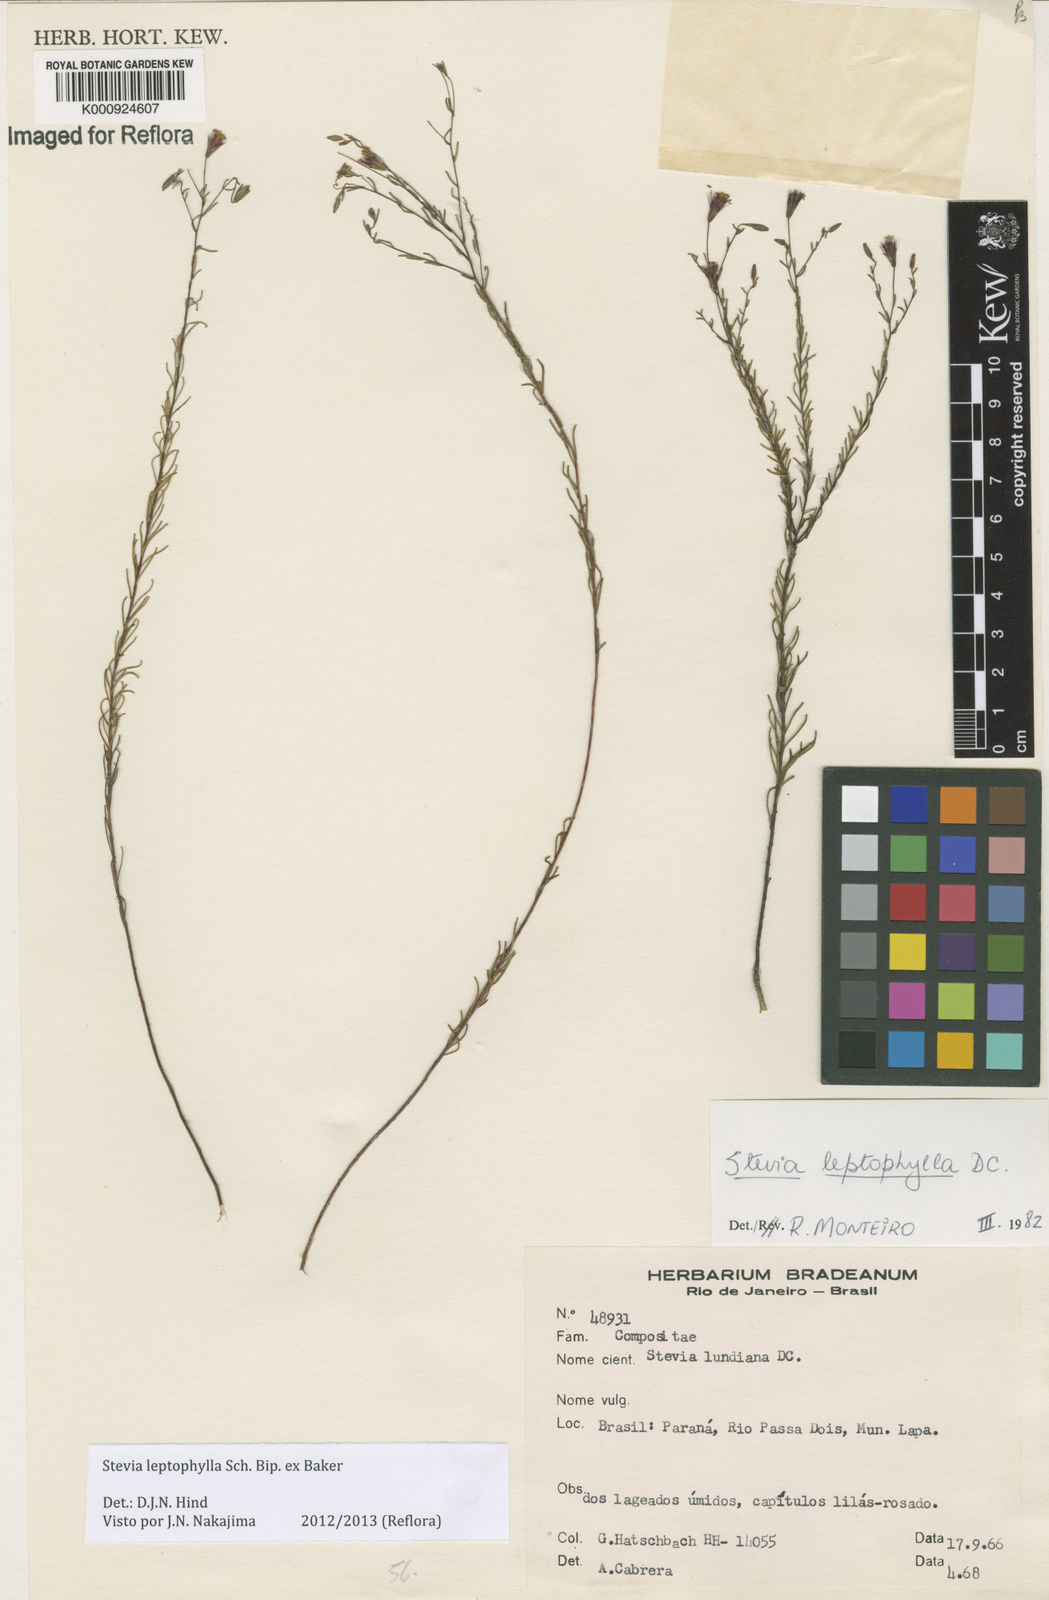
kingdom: Plantae
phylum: Tracheophyta
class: Magnoliopsida
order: Asterales
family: Asteraceae
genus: Stevia
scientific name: Stevia
